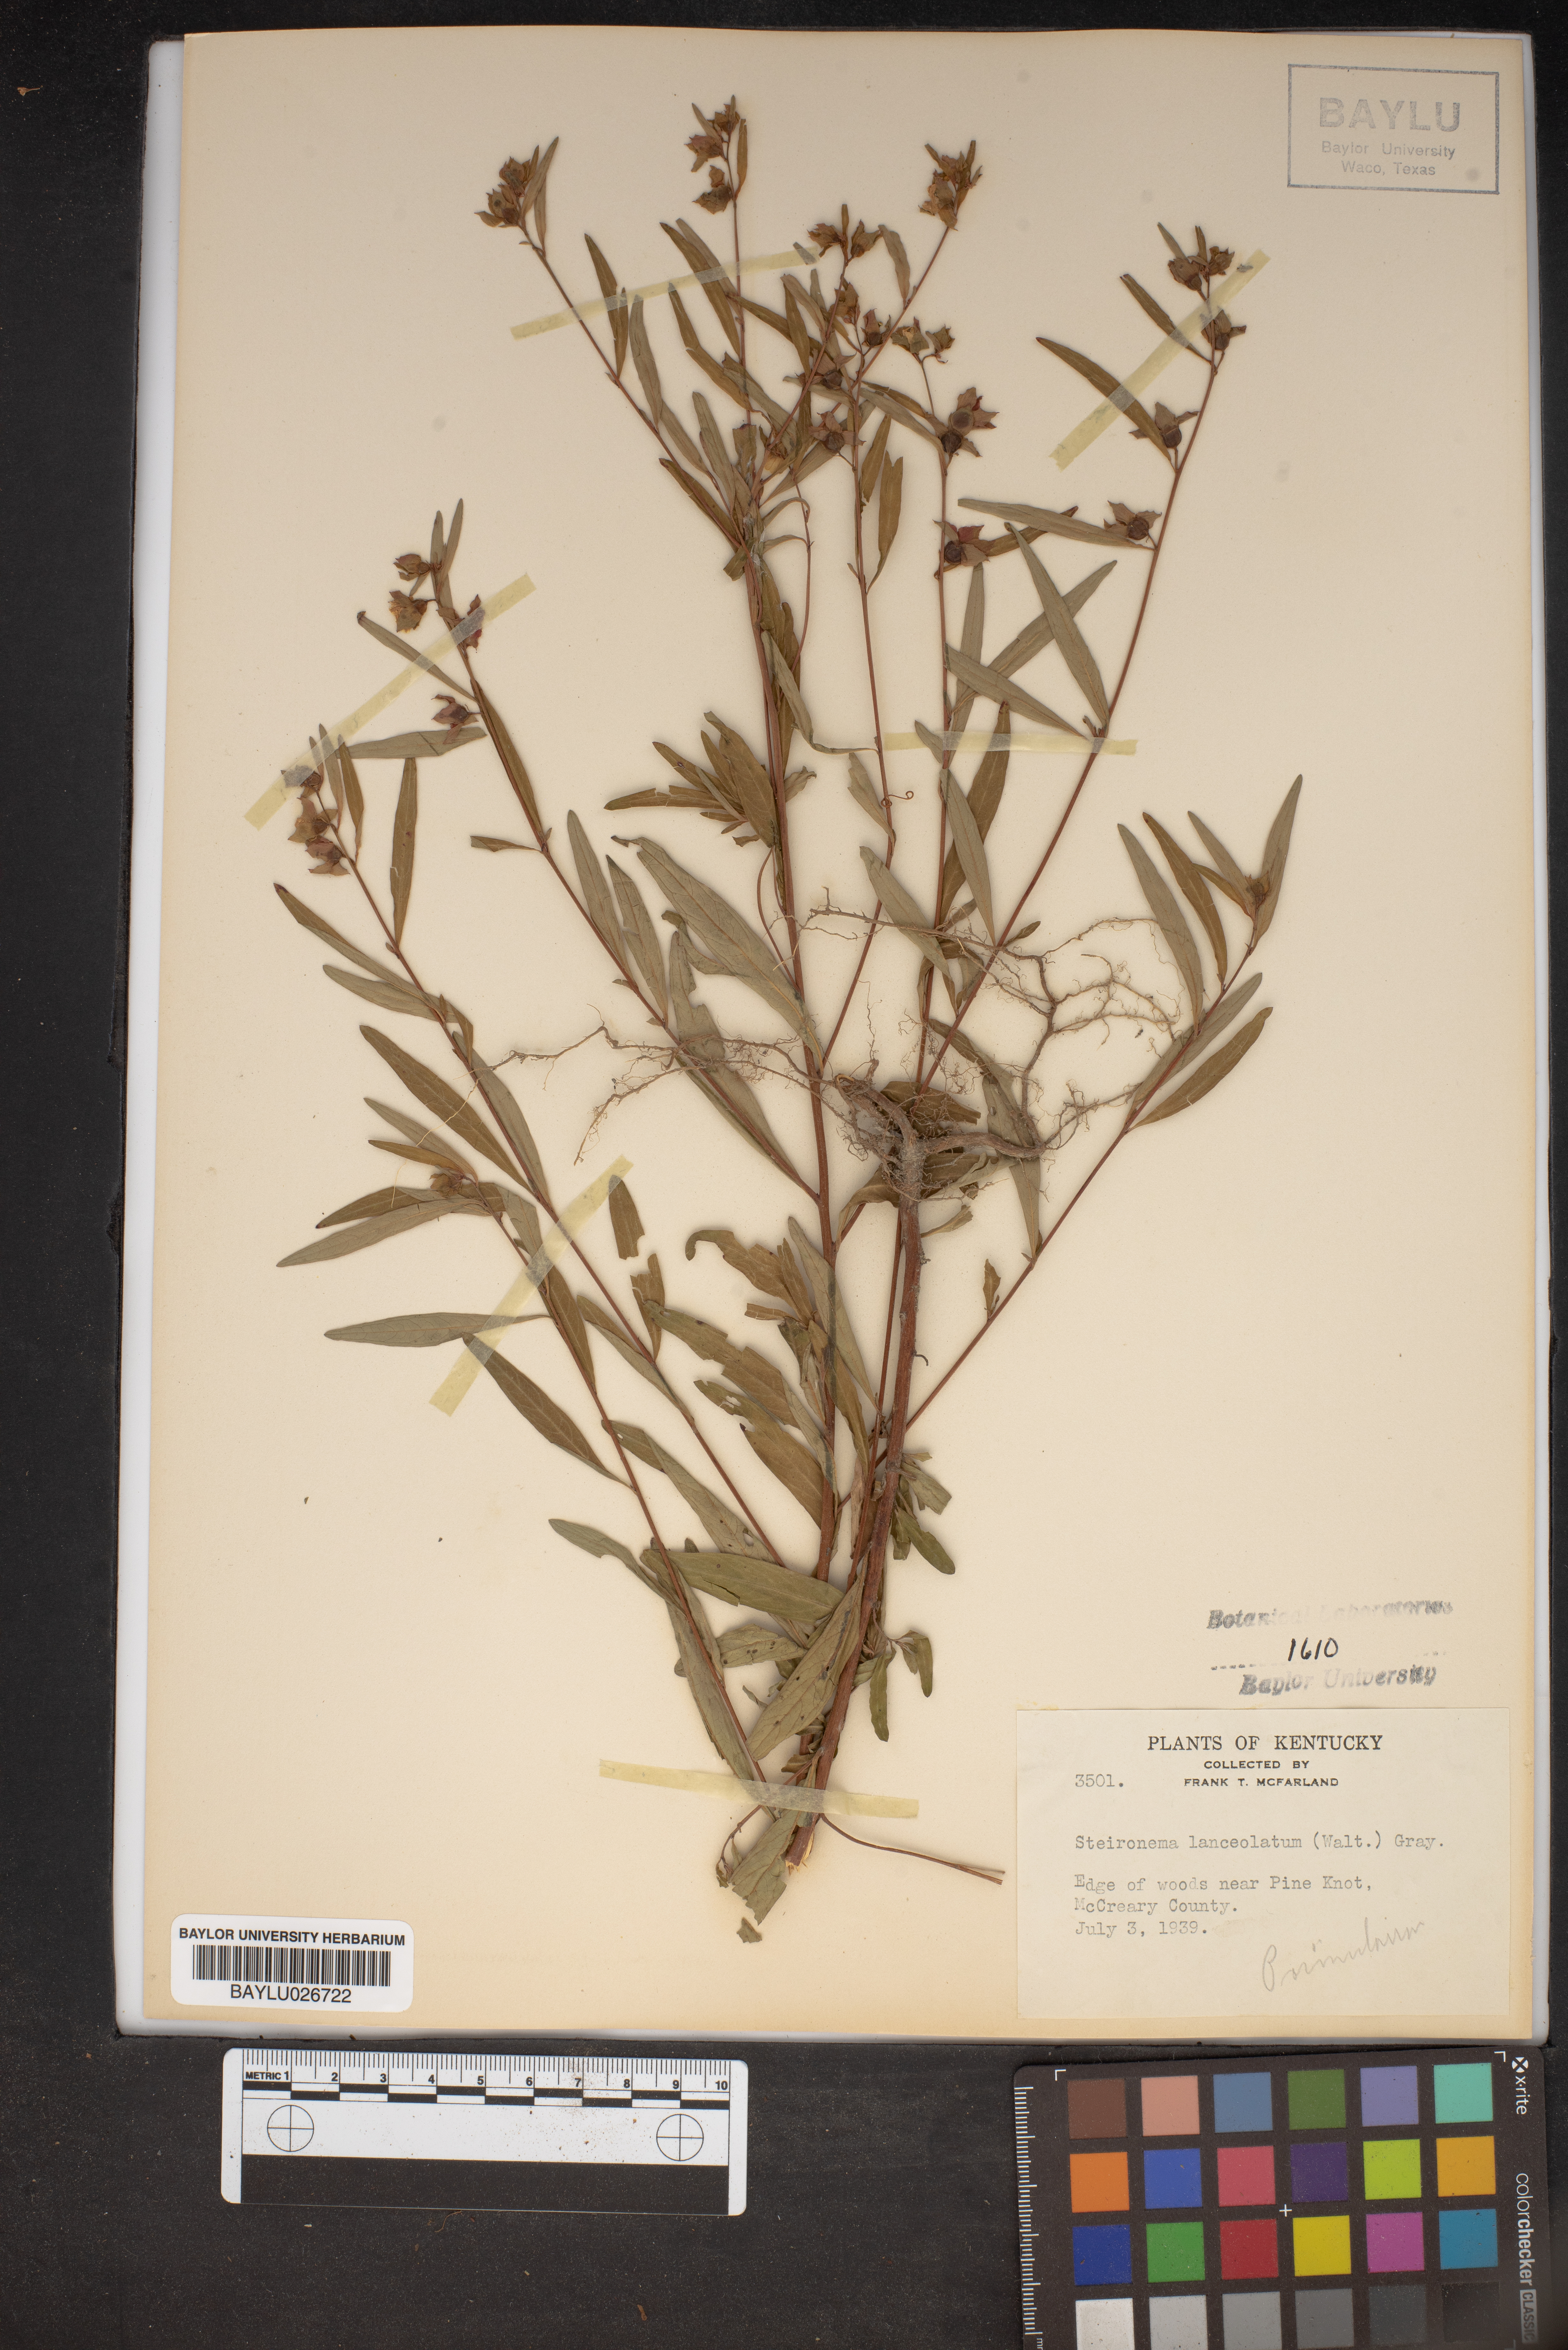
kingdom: Plantae
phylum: Tracheophyta
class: Magnoliopsida
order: Ericales
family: Primulaceae
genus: Lysimachia
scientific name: Lysimachia lanceolata
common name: Lance-leaved loosestrife
